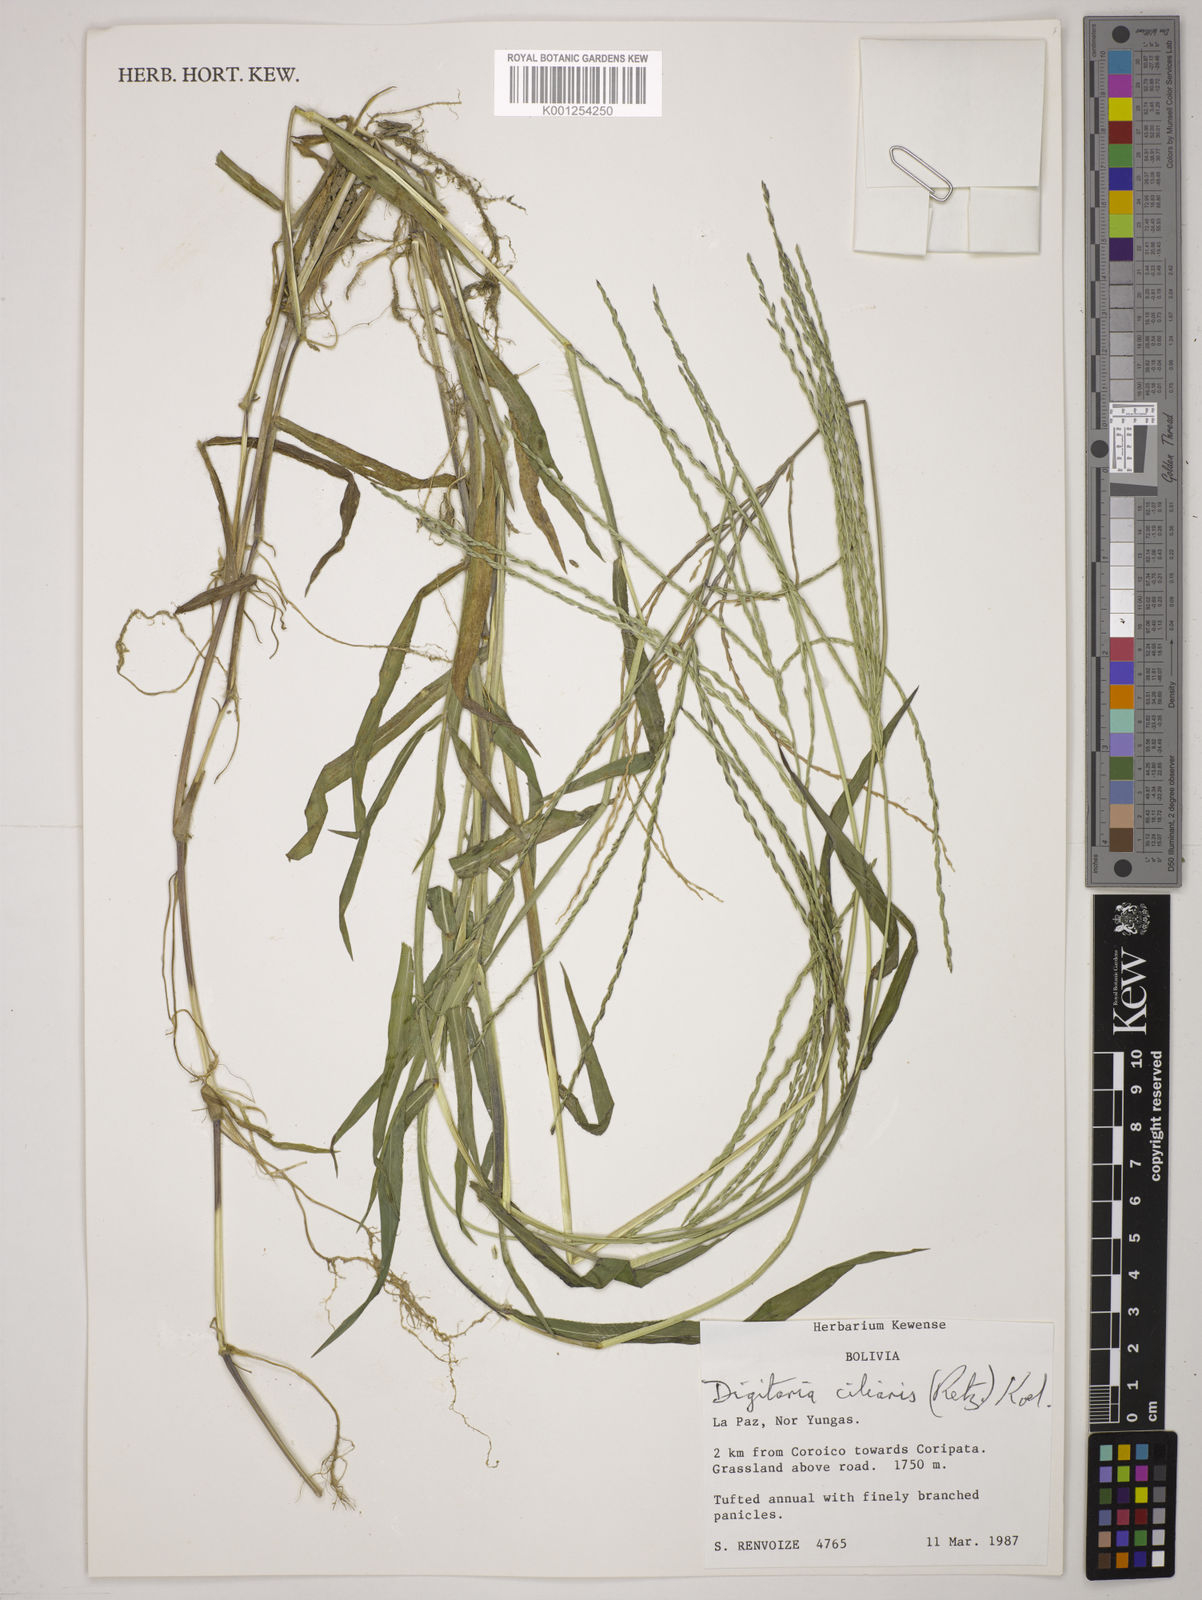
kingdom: Plantae
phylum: Tracheophyta
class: Liliopsida
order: Poales
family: Poaceae
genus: Digitaria
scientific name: Digitaria
